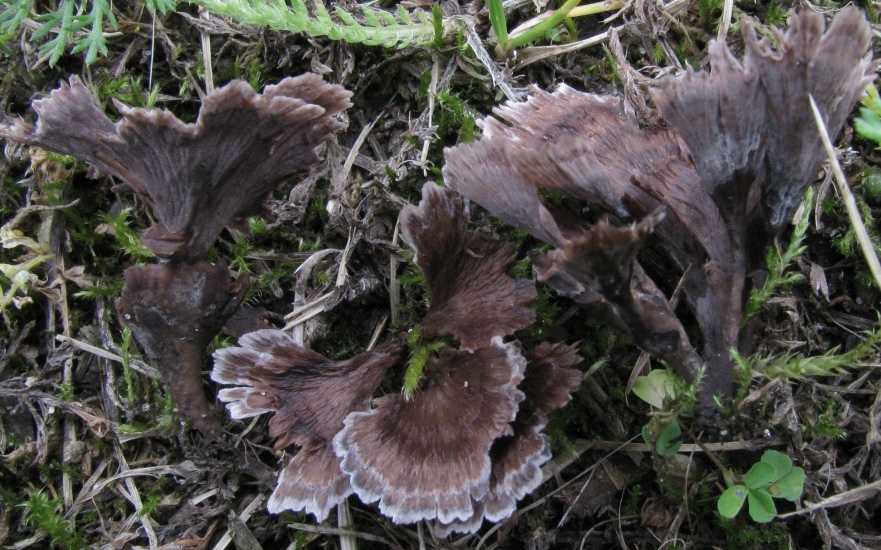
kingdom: Fungi
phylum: Basidiomycota
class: Agaricomycetes
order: Thelephorales
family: Thelephoraceae
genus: Thelephora
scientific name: Thelephora caryophyllea
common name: tragt-frynsesvamp
